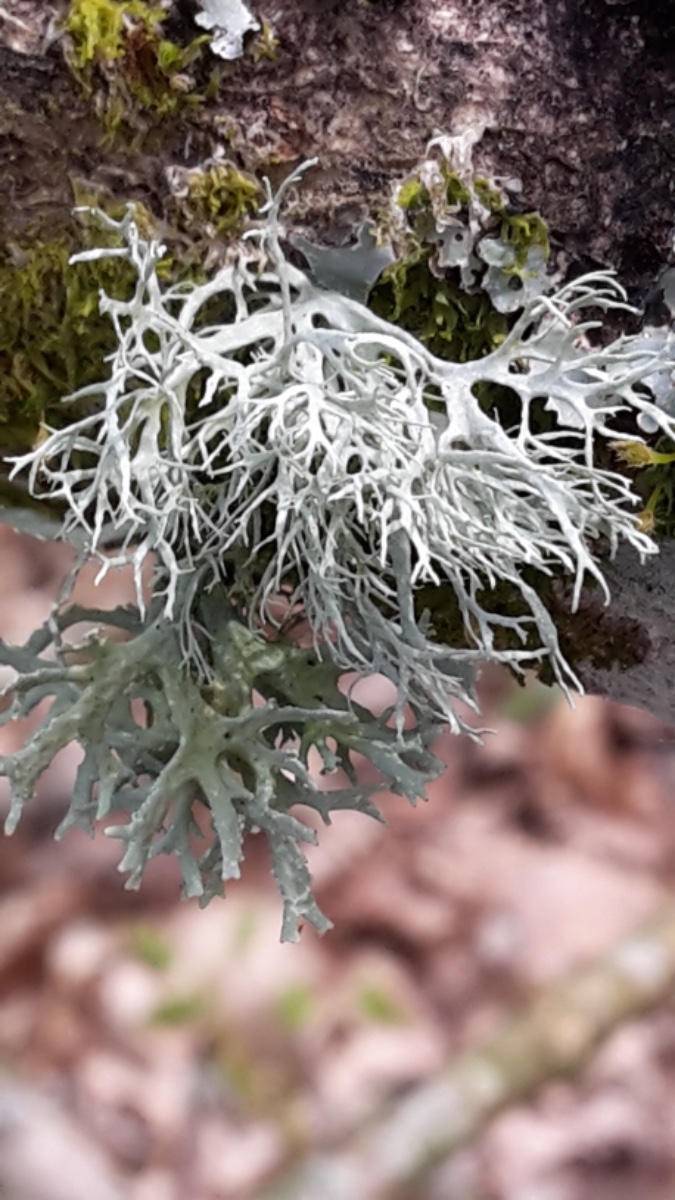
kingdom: Fungi
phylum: Ascomycota
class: Lecanoromycetes
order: Lecanorales
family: Parmeliaceae
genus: Evernia
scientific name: Evernia prunastri
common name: almindelig slåenlav
